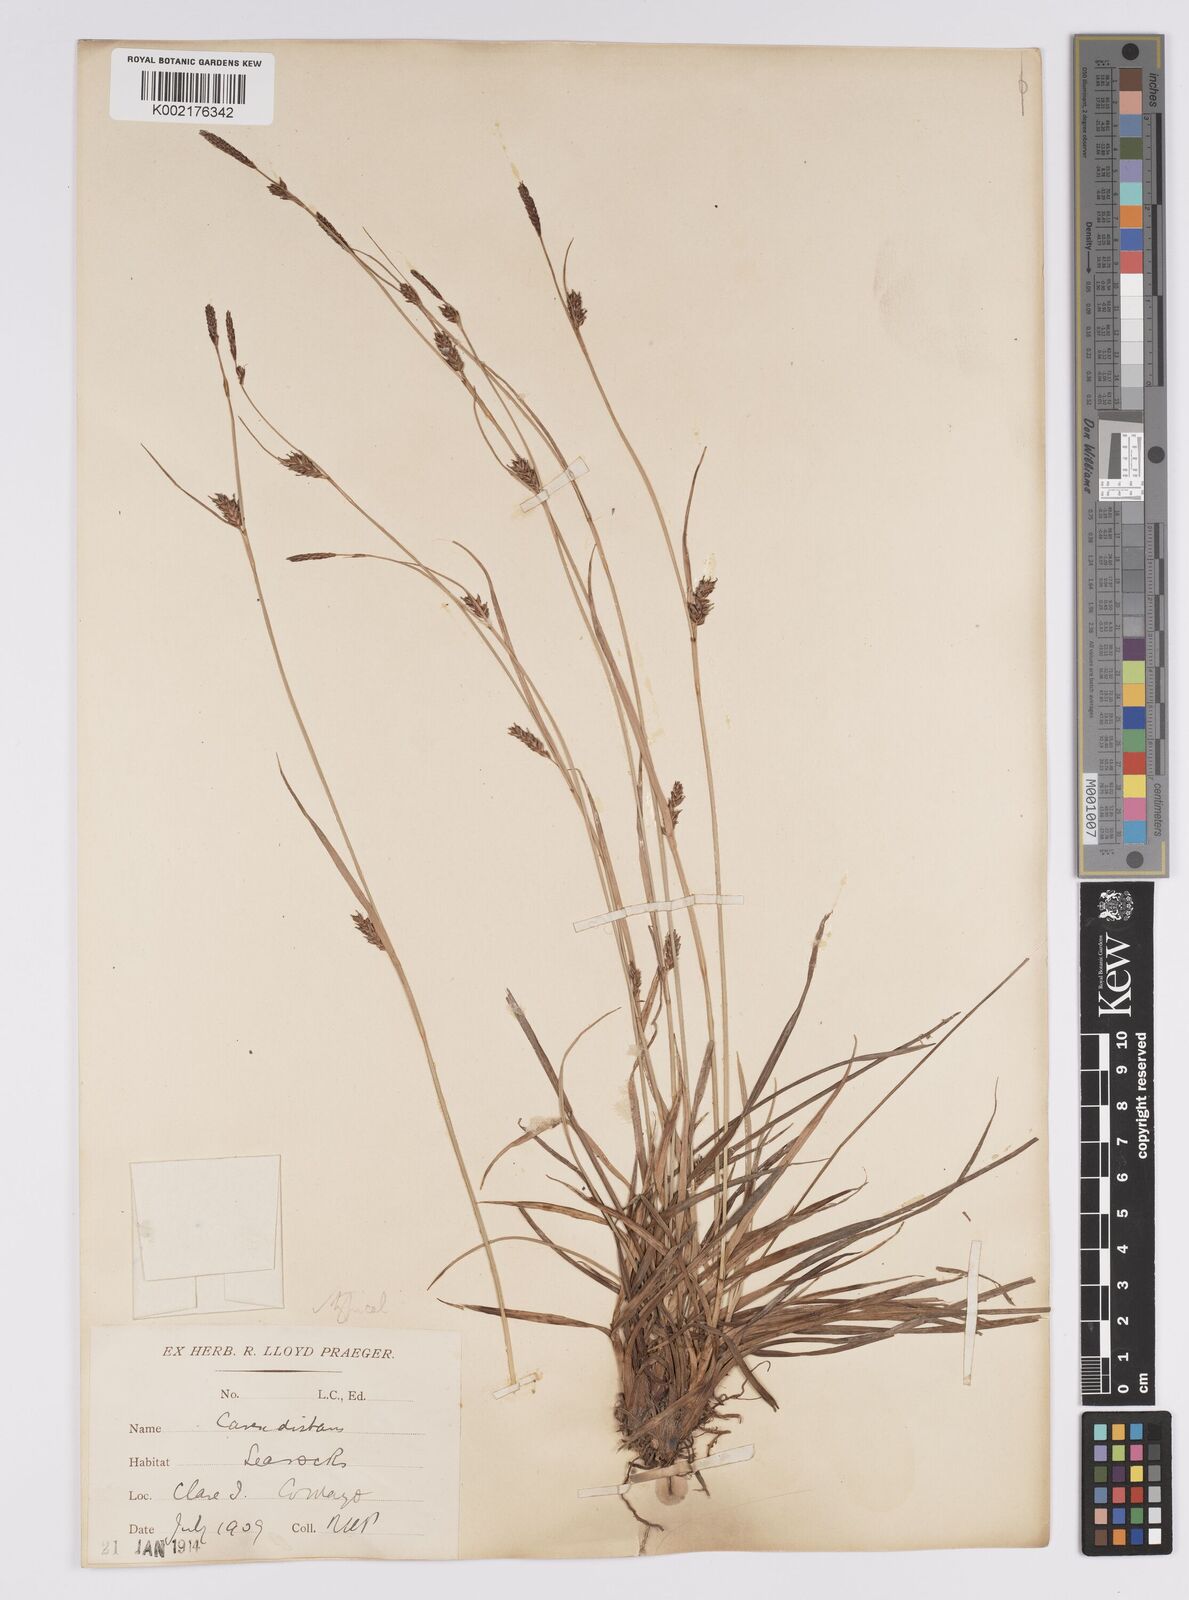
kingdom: Plantae
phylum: Tracheophyta
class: Liliopsida
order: Poales
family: Cyperaceae
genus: Carex
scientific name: Carex distans
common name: Distant sedge
